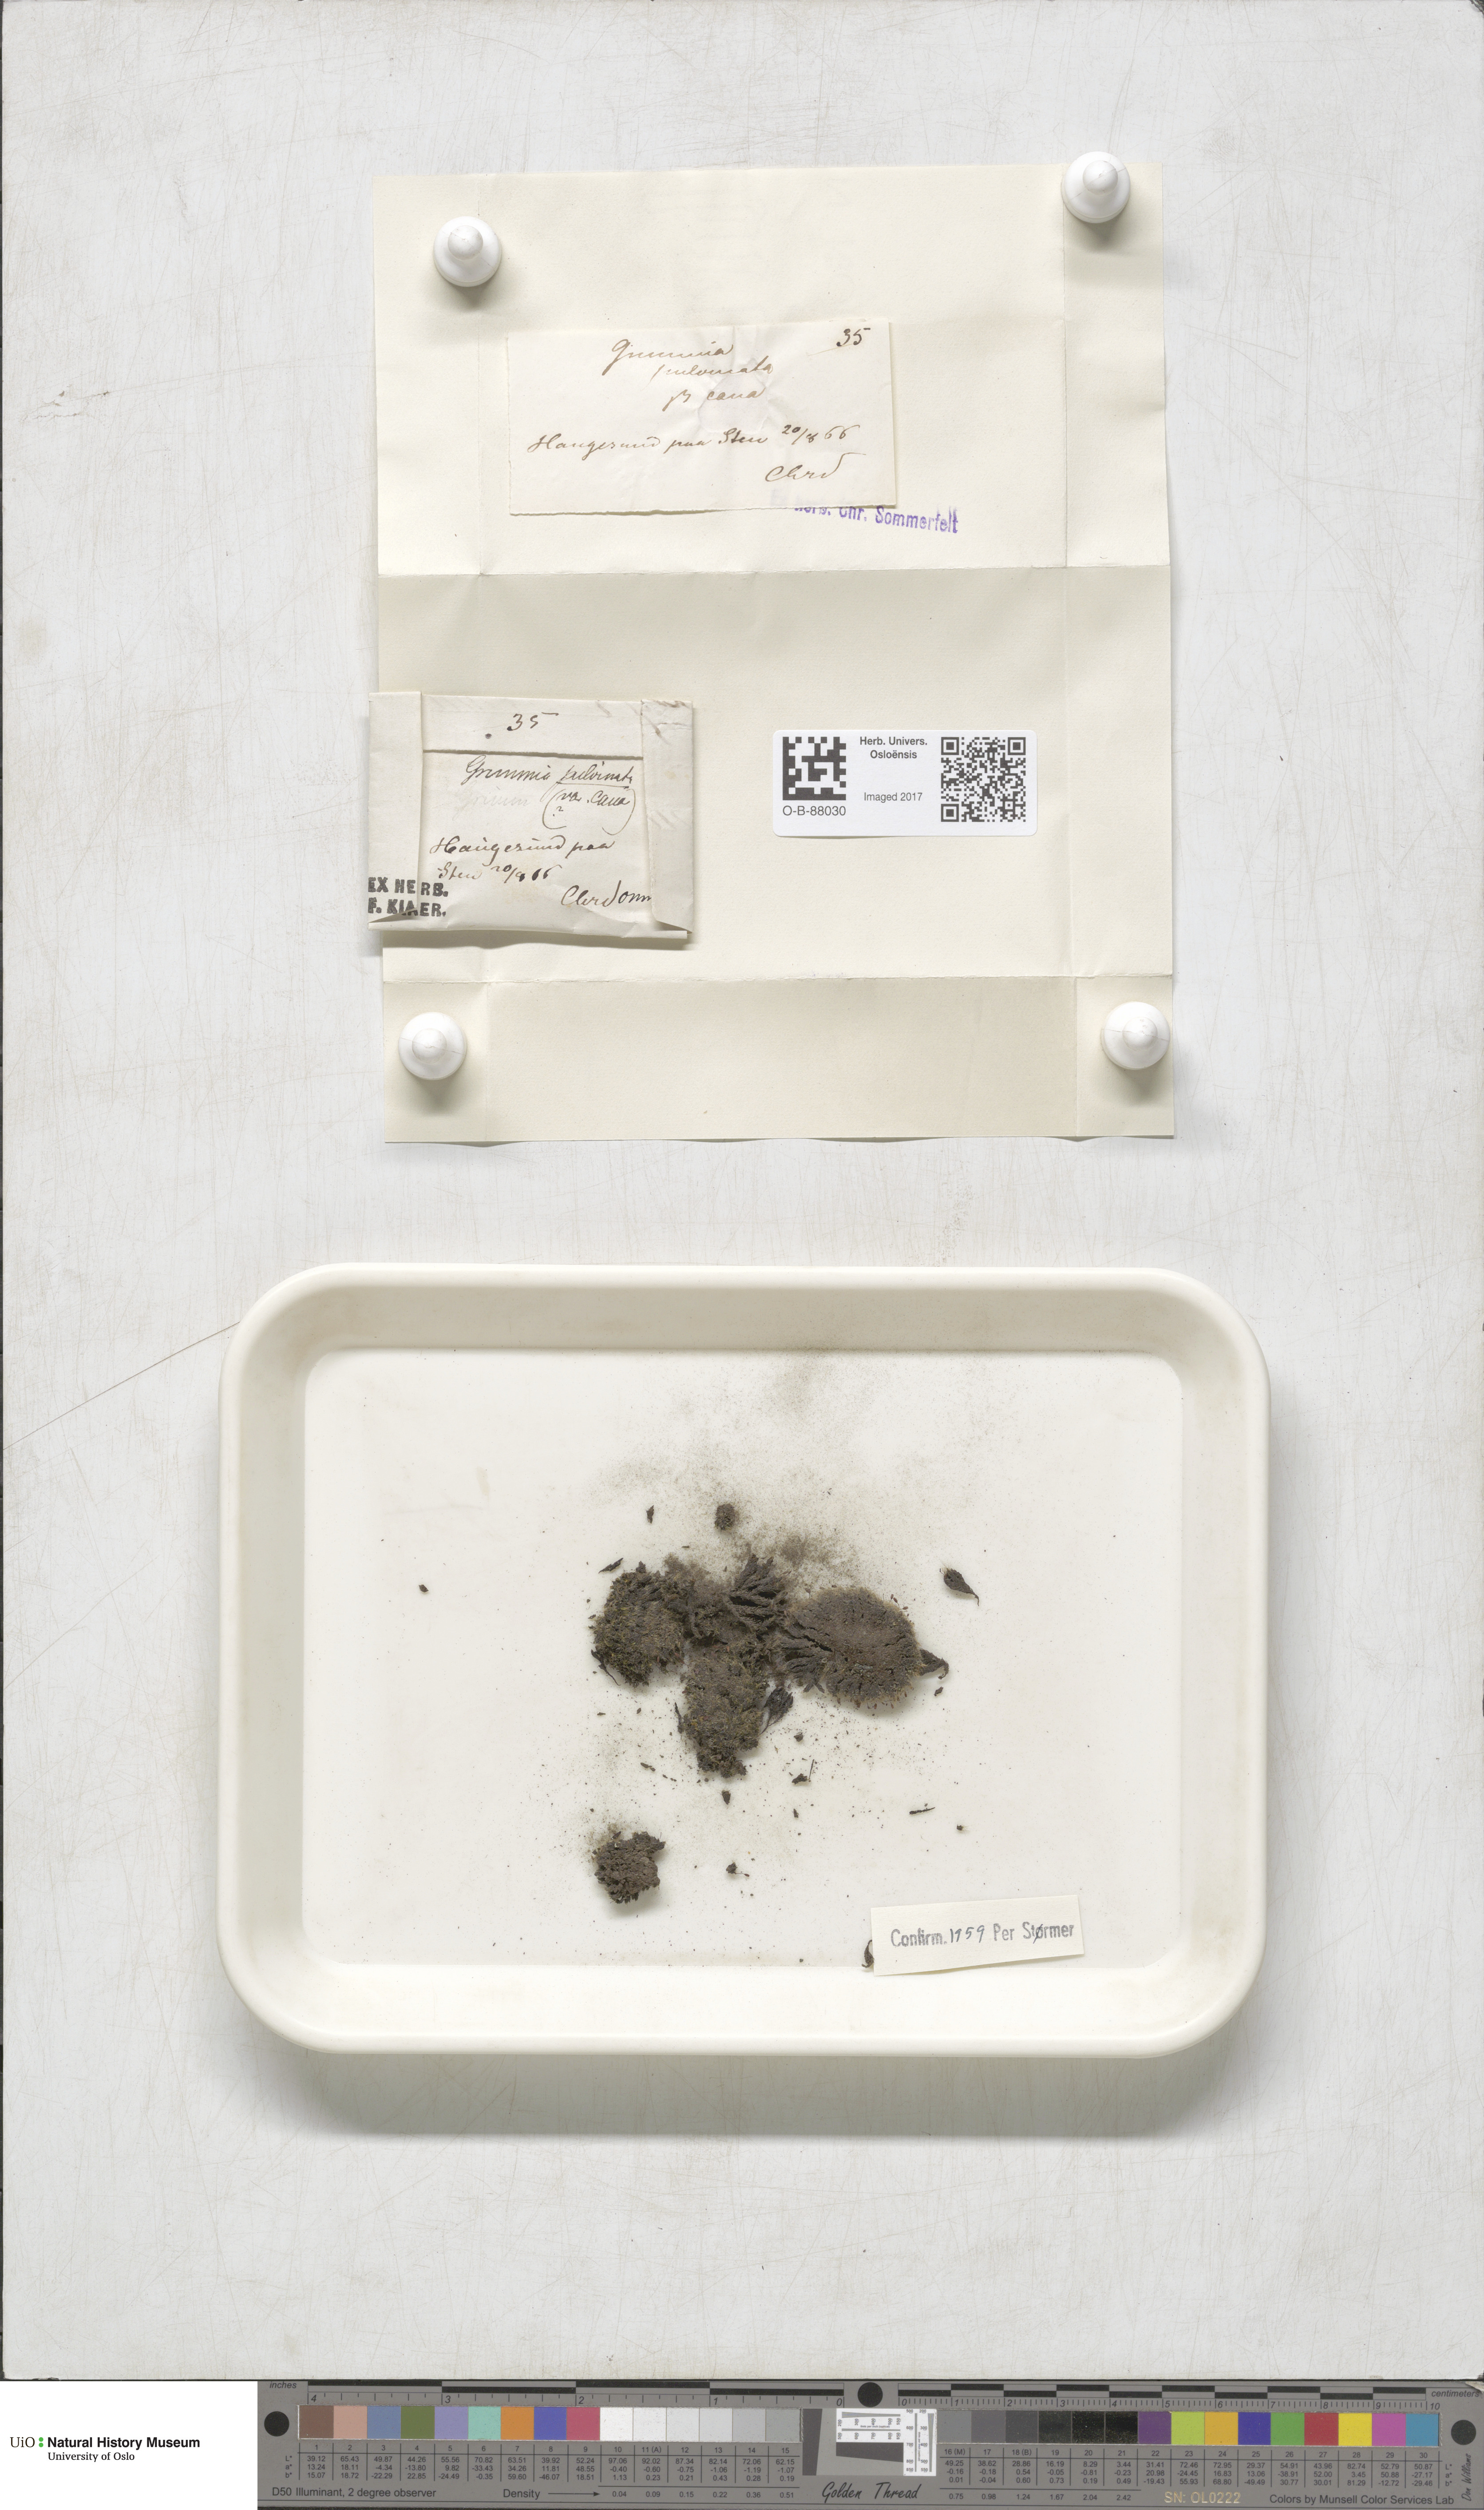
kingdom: Plantae
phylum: Bryophyta
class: Bryopsida
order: Grimmiales
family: Grimmiaceae
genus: Grimmia
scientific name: Grimmia pulvinata
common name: Grey-cushioned grimmia
